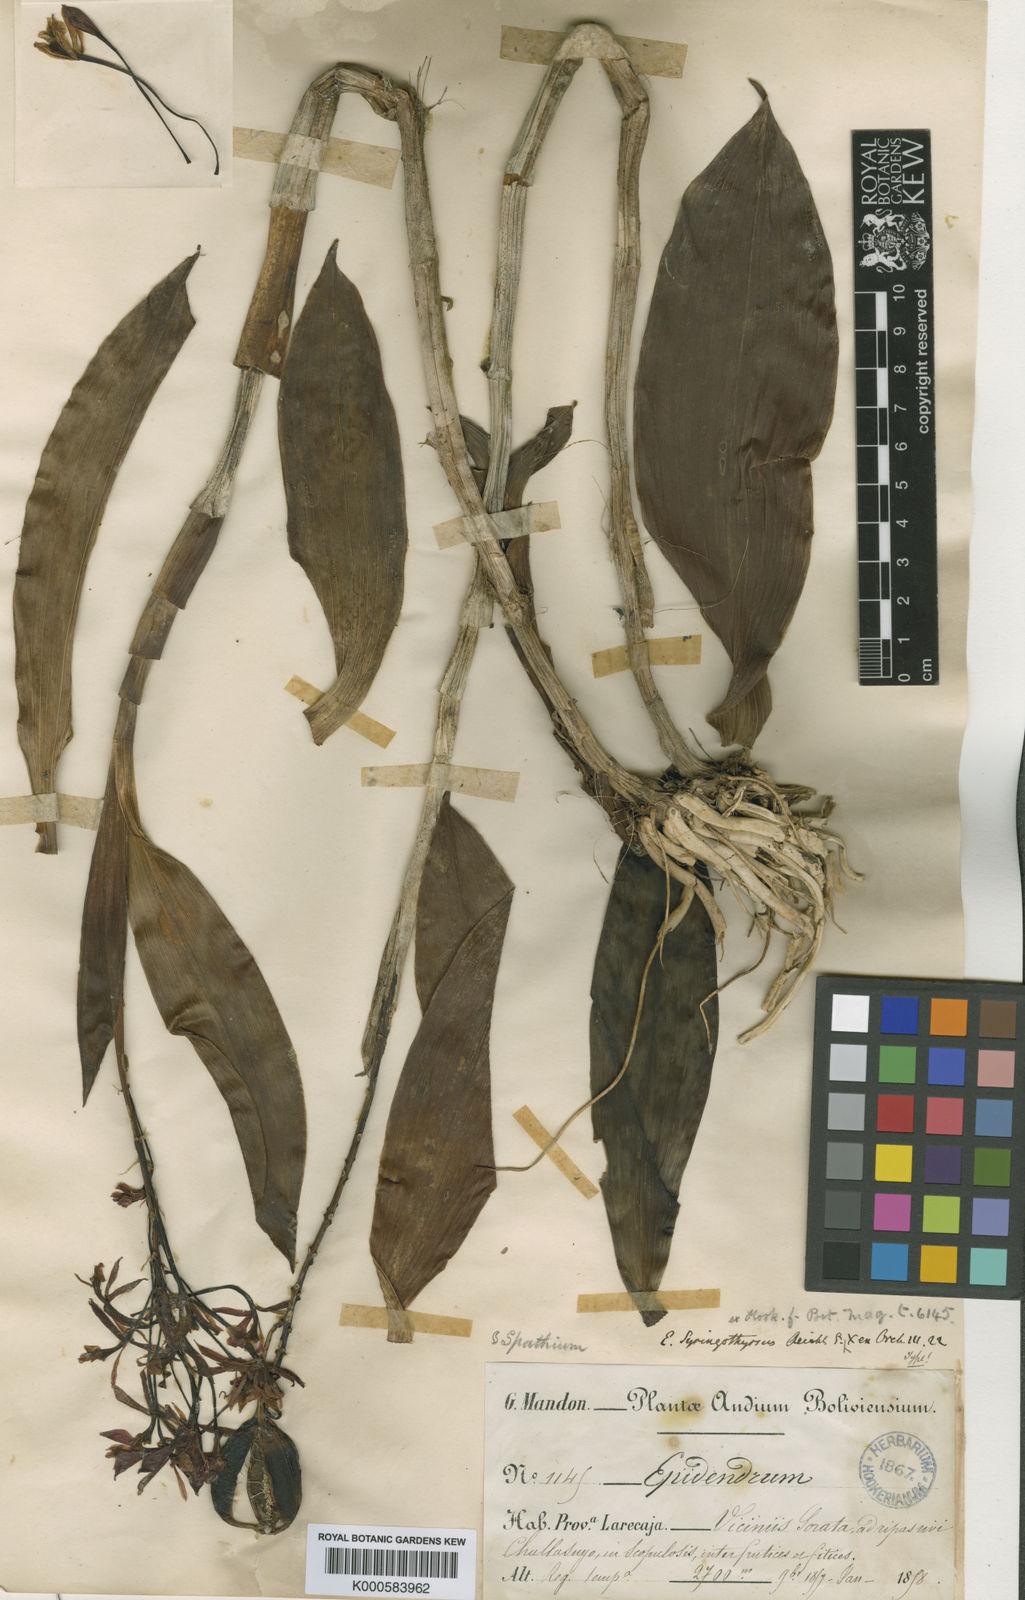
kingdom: Plantae
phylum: Tracheophyta
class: Liliopsida
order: Asparagales
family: Orchidaceae
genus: Epidendrum
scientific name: Epidendrum
